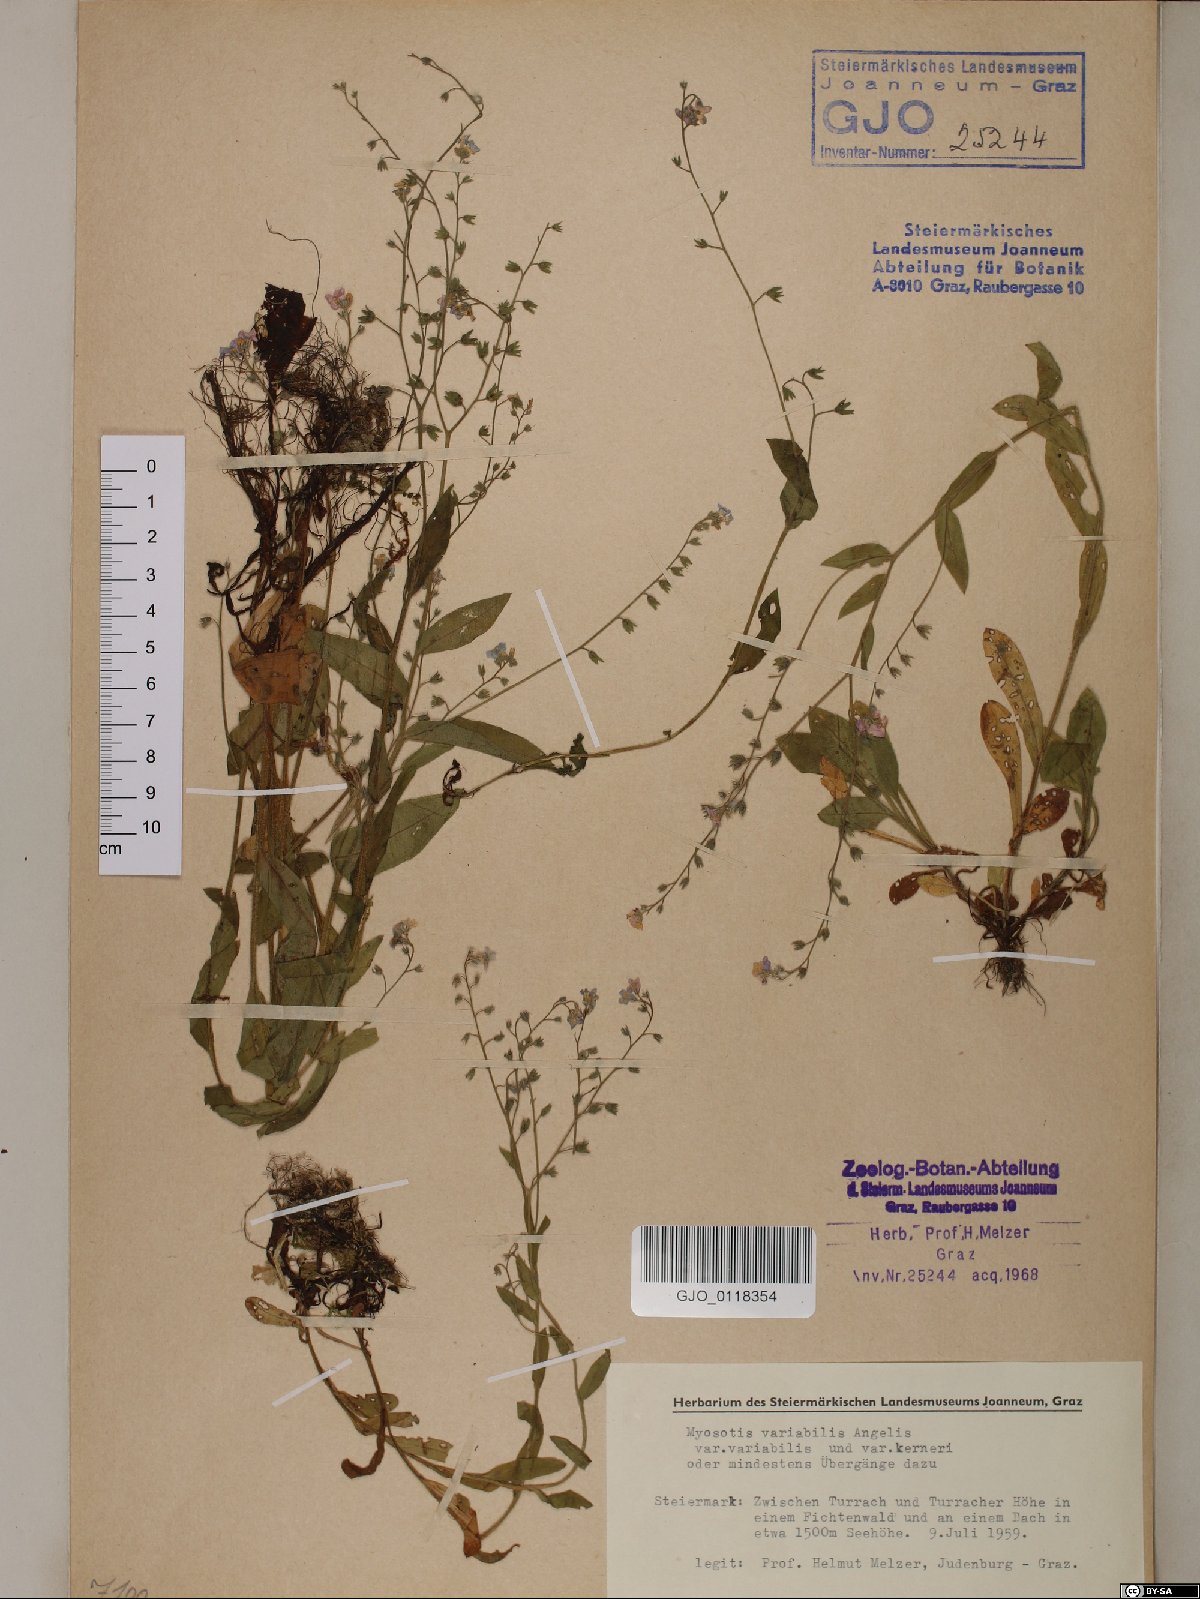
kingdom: Plantae
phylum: Tracheophyta
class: Magnoliopsida
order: Boraginales
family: Boraginaceae
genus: Myosotis
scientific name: Myosotis decumbens
